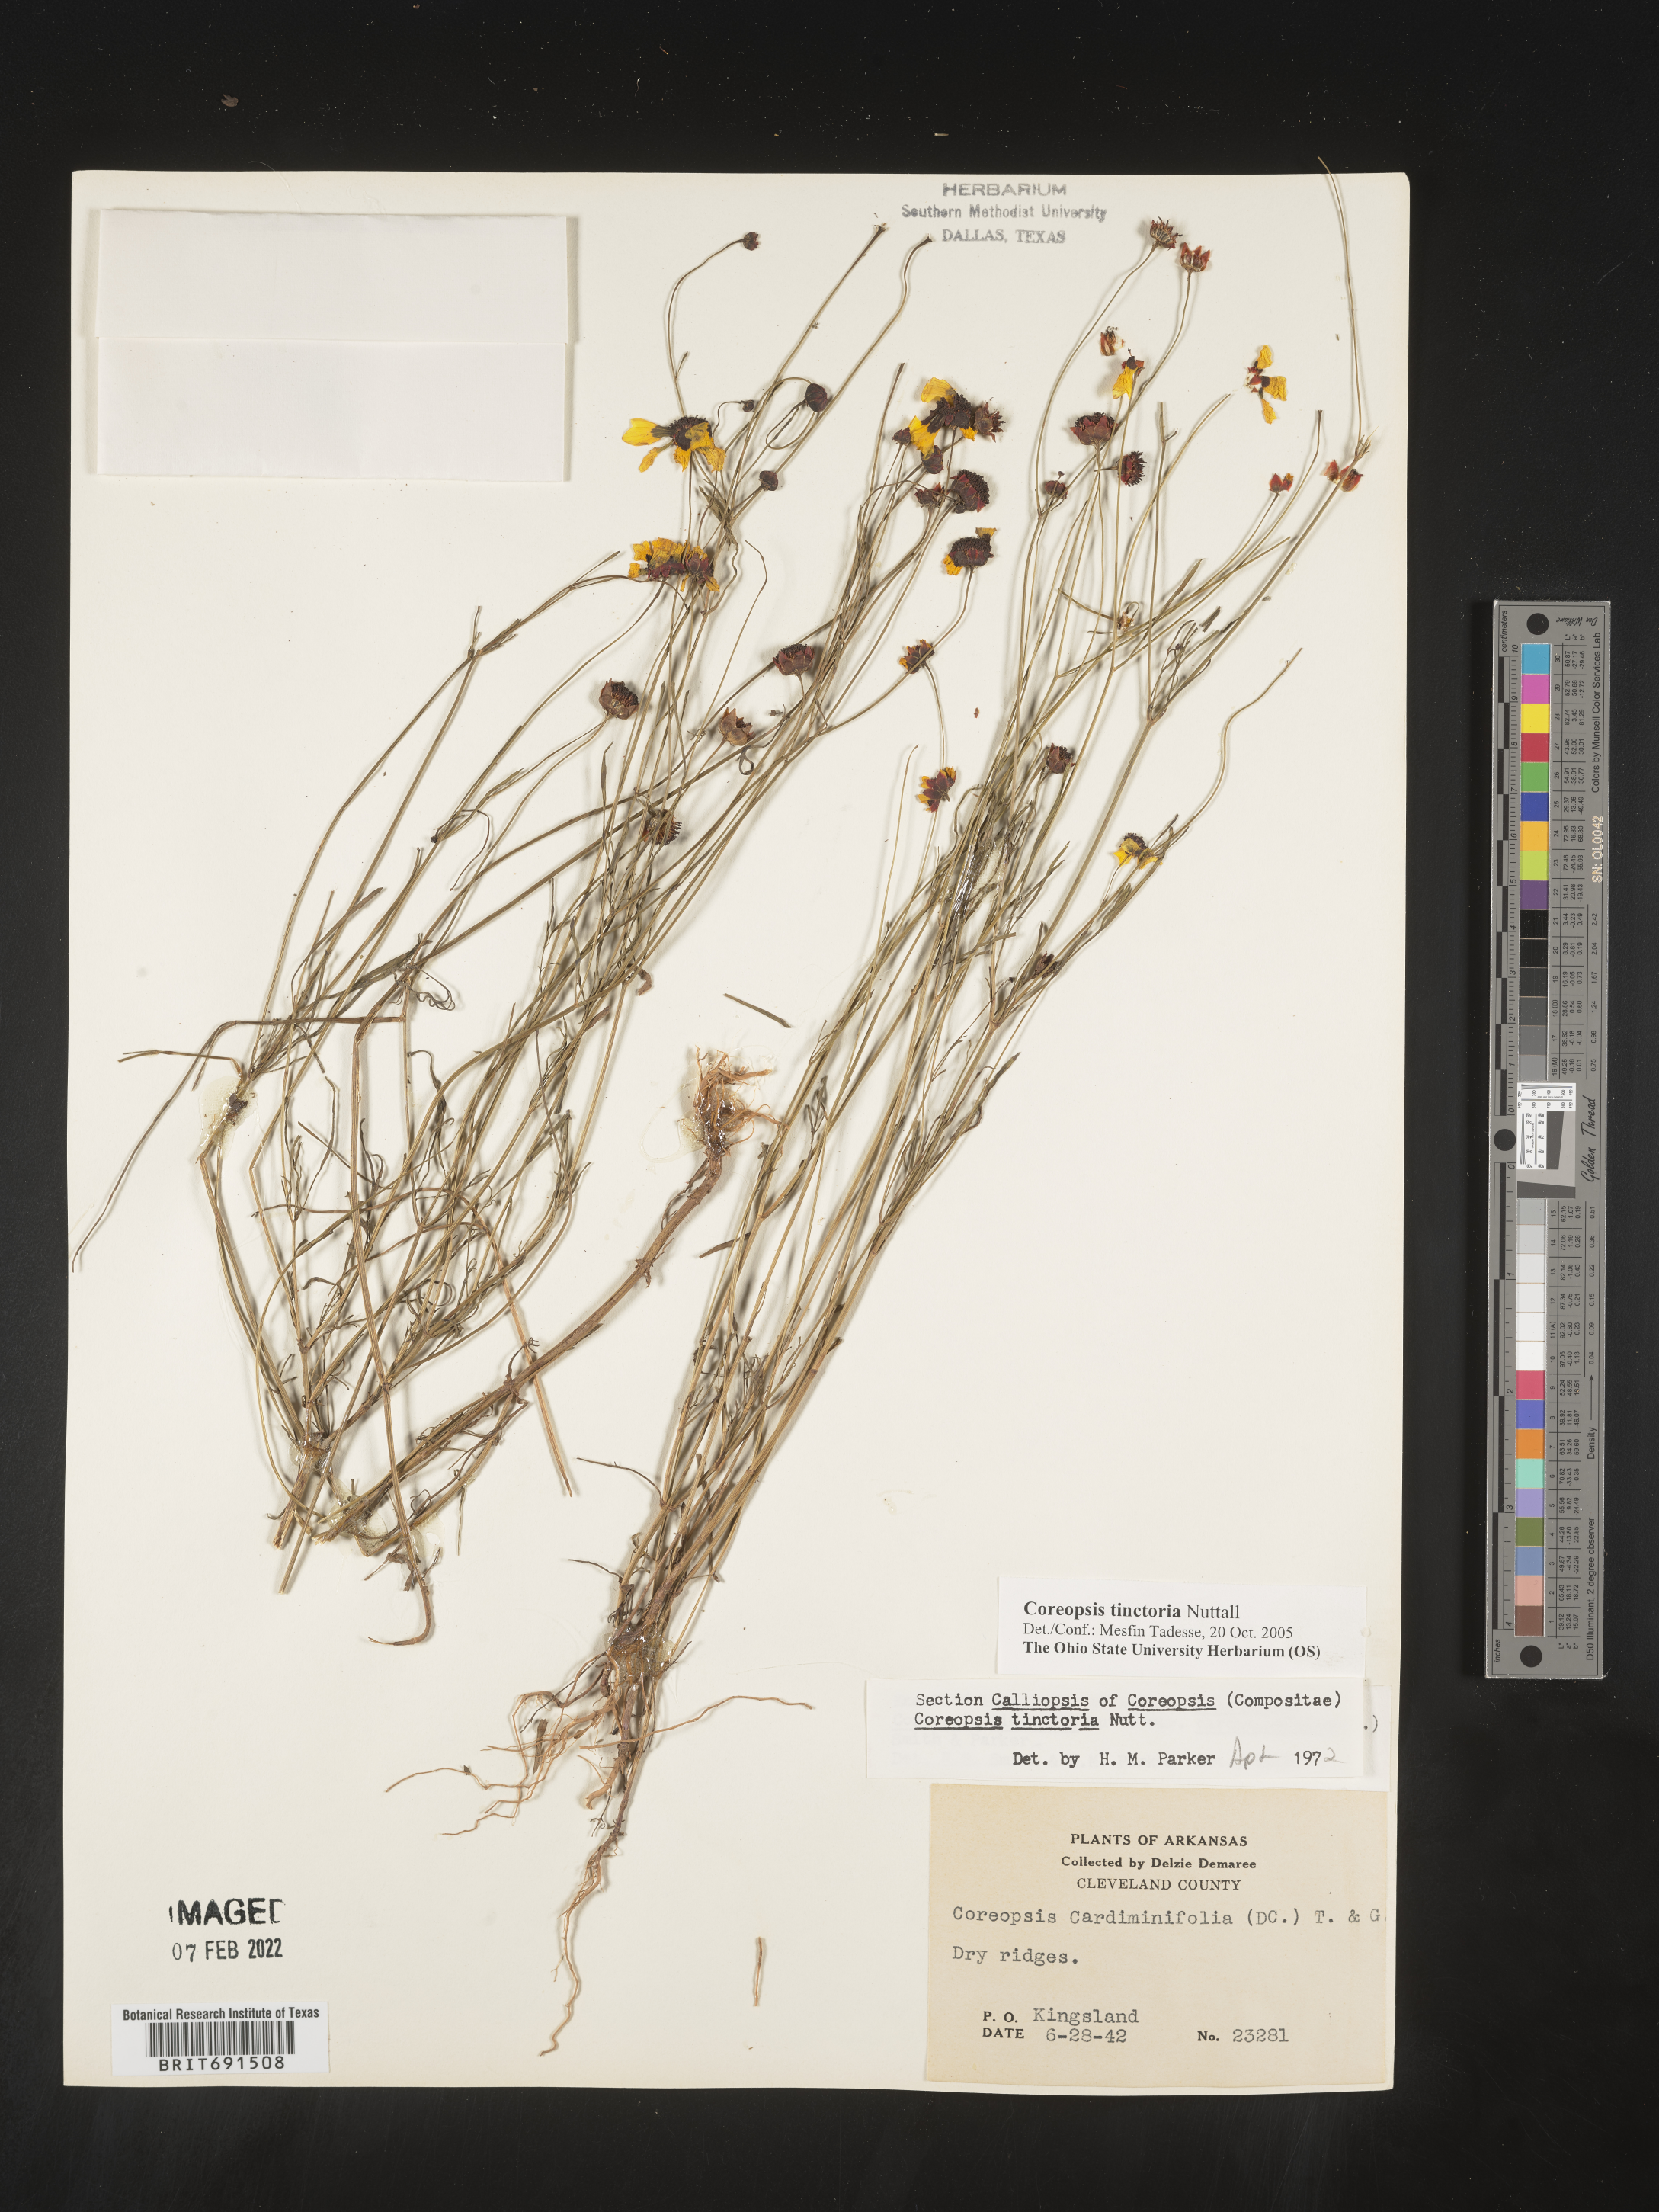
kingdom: Plantae
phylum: Tracheophyta
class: Magnoliopsida
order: Asterales
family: Asteraceae
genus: Coreopsis
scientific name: Coreopsis tinctoria
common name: Garden tickseed
